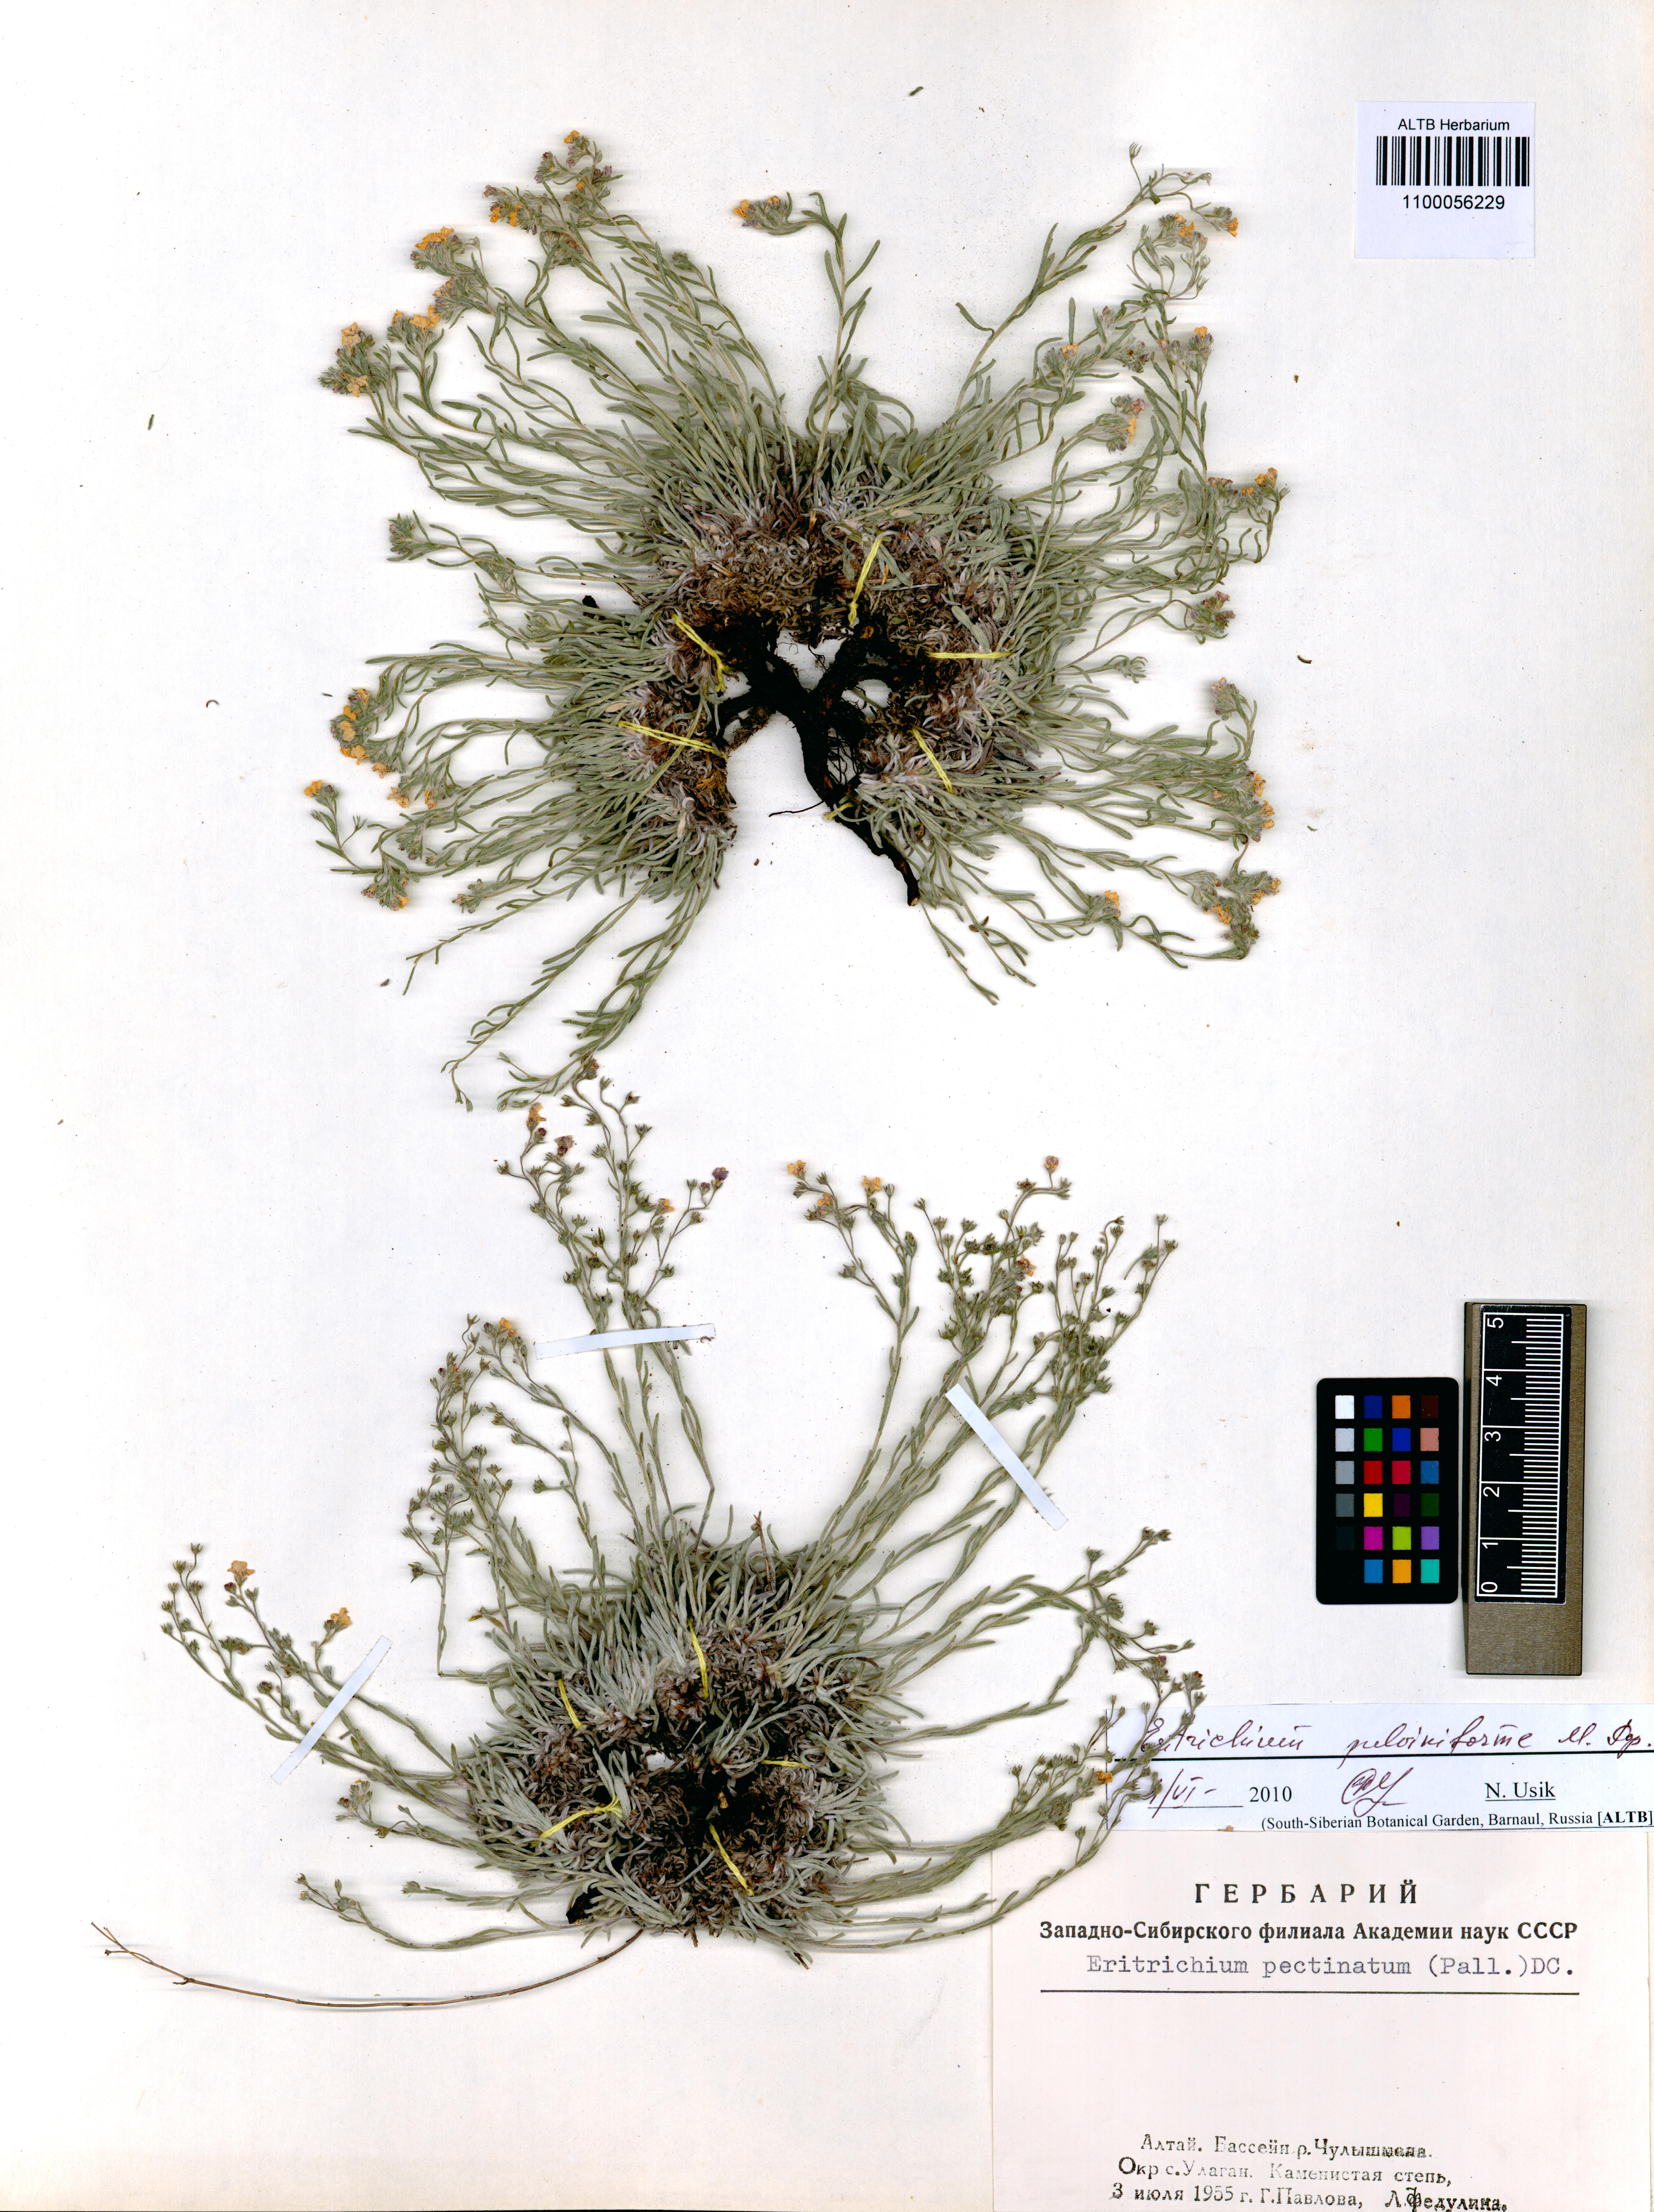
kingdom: Plantae
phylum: Tracheophyta
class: Magnoliopsida
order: Boraginales
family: Boraginaceae
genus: Eritrichium
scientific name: Eritrichium pauciflorum
